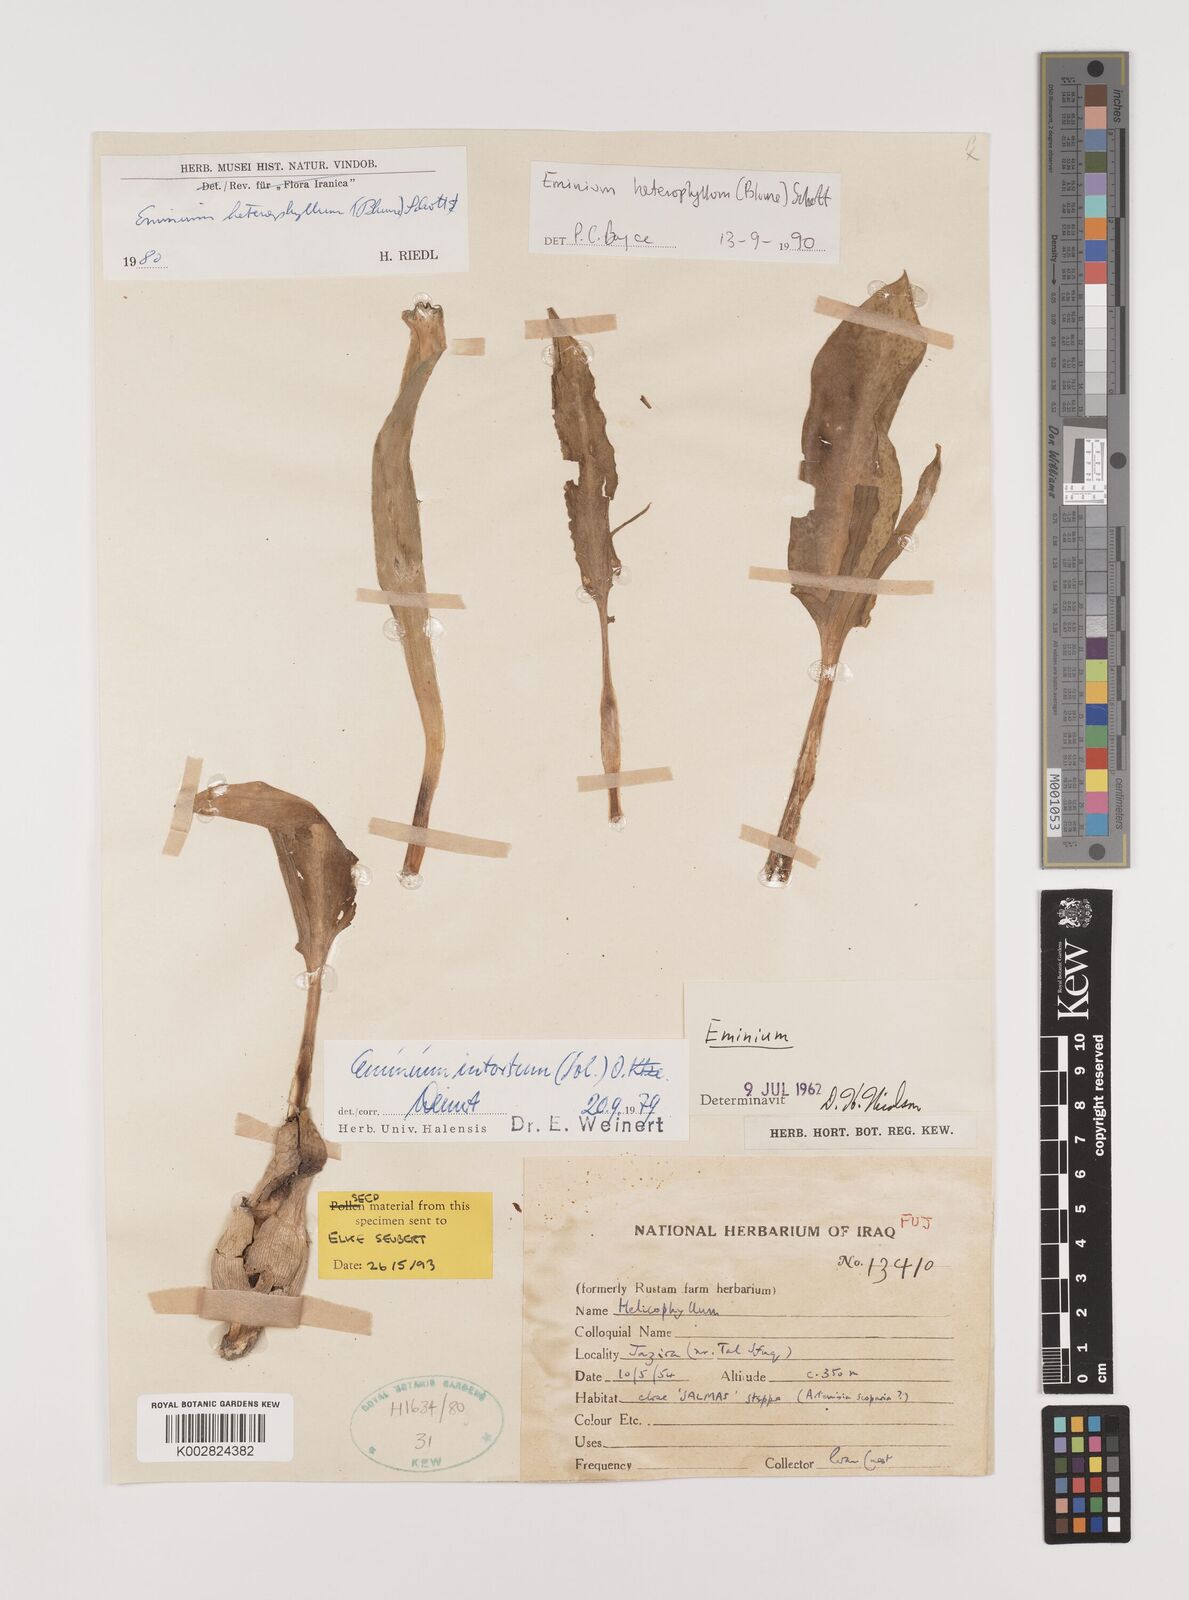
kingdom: Plantae
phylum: Tracheophyta
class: Liliopsida
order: Alismatales
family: Araceae
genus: Eminium
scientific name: Eminium rauwolffii
